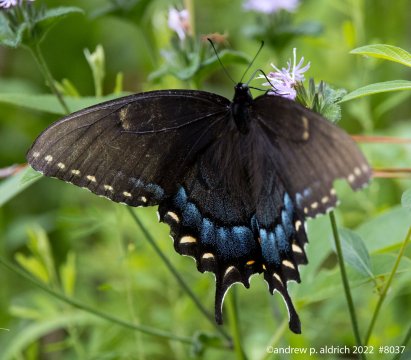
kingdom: Animalia
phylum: Arthropoda
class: Insecta
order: Lepidoptera
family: Papilionidae
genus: Pterourus
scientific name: Pterourus glaucus
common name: Eastern Tiger Swallowtail
